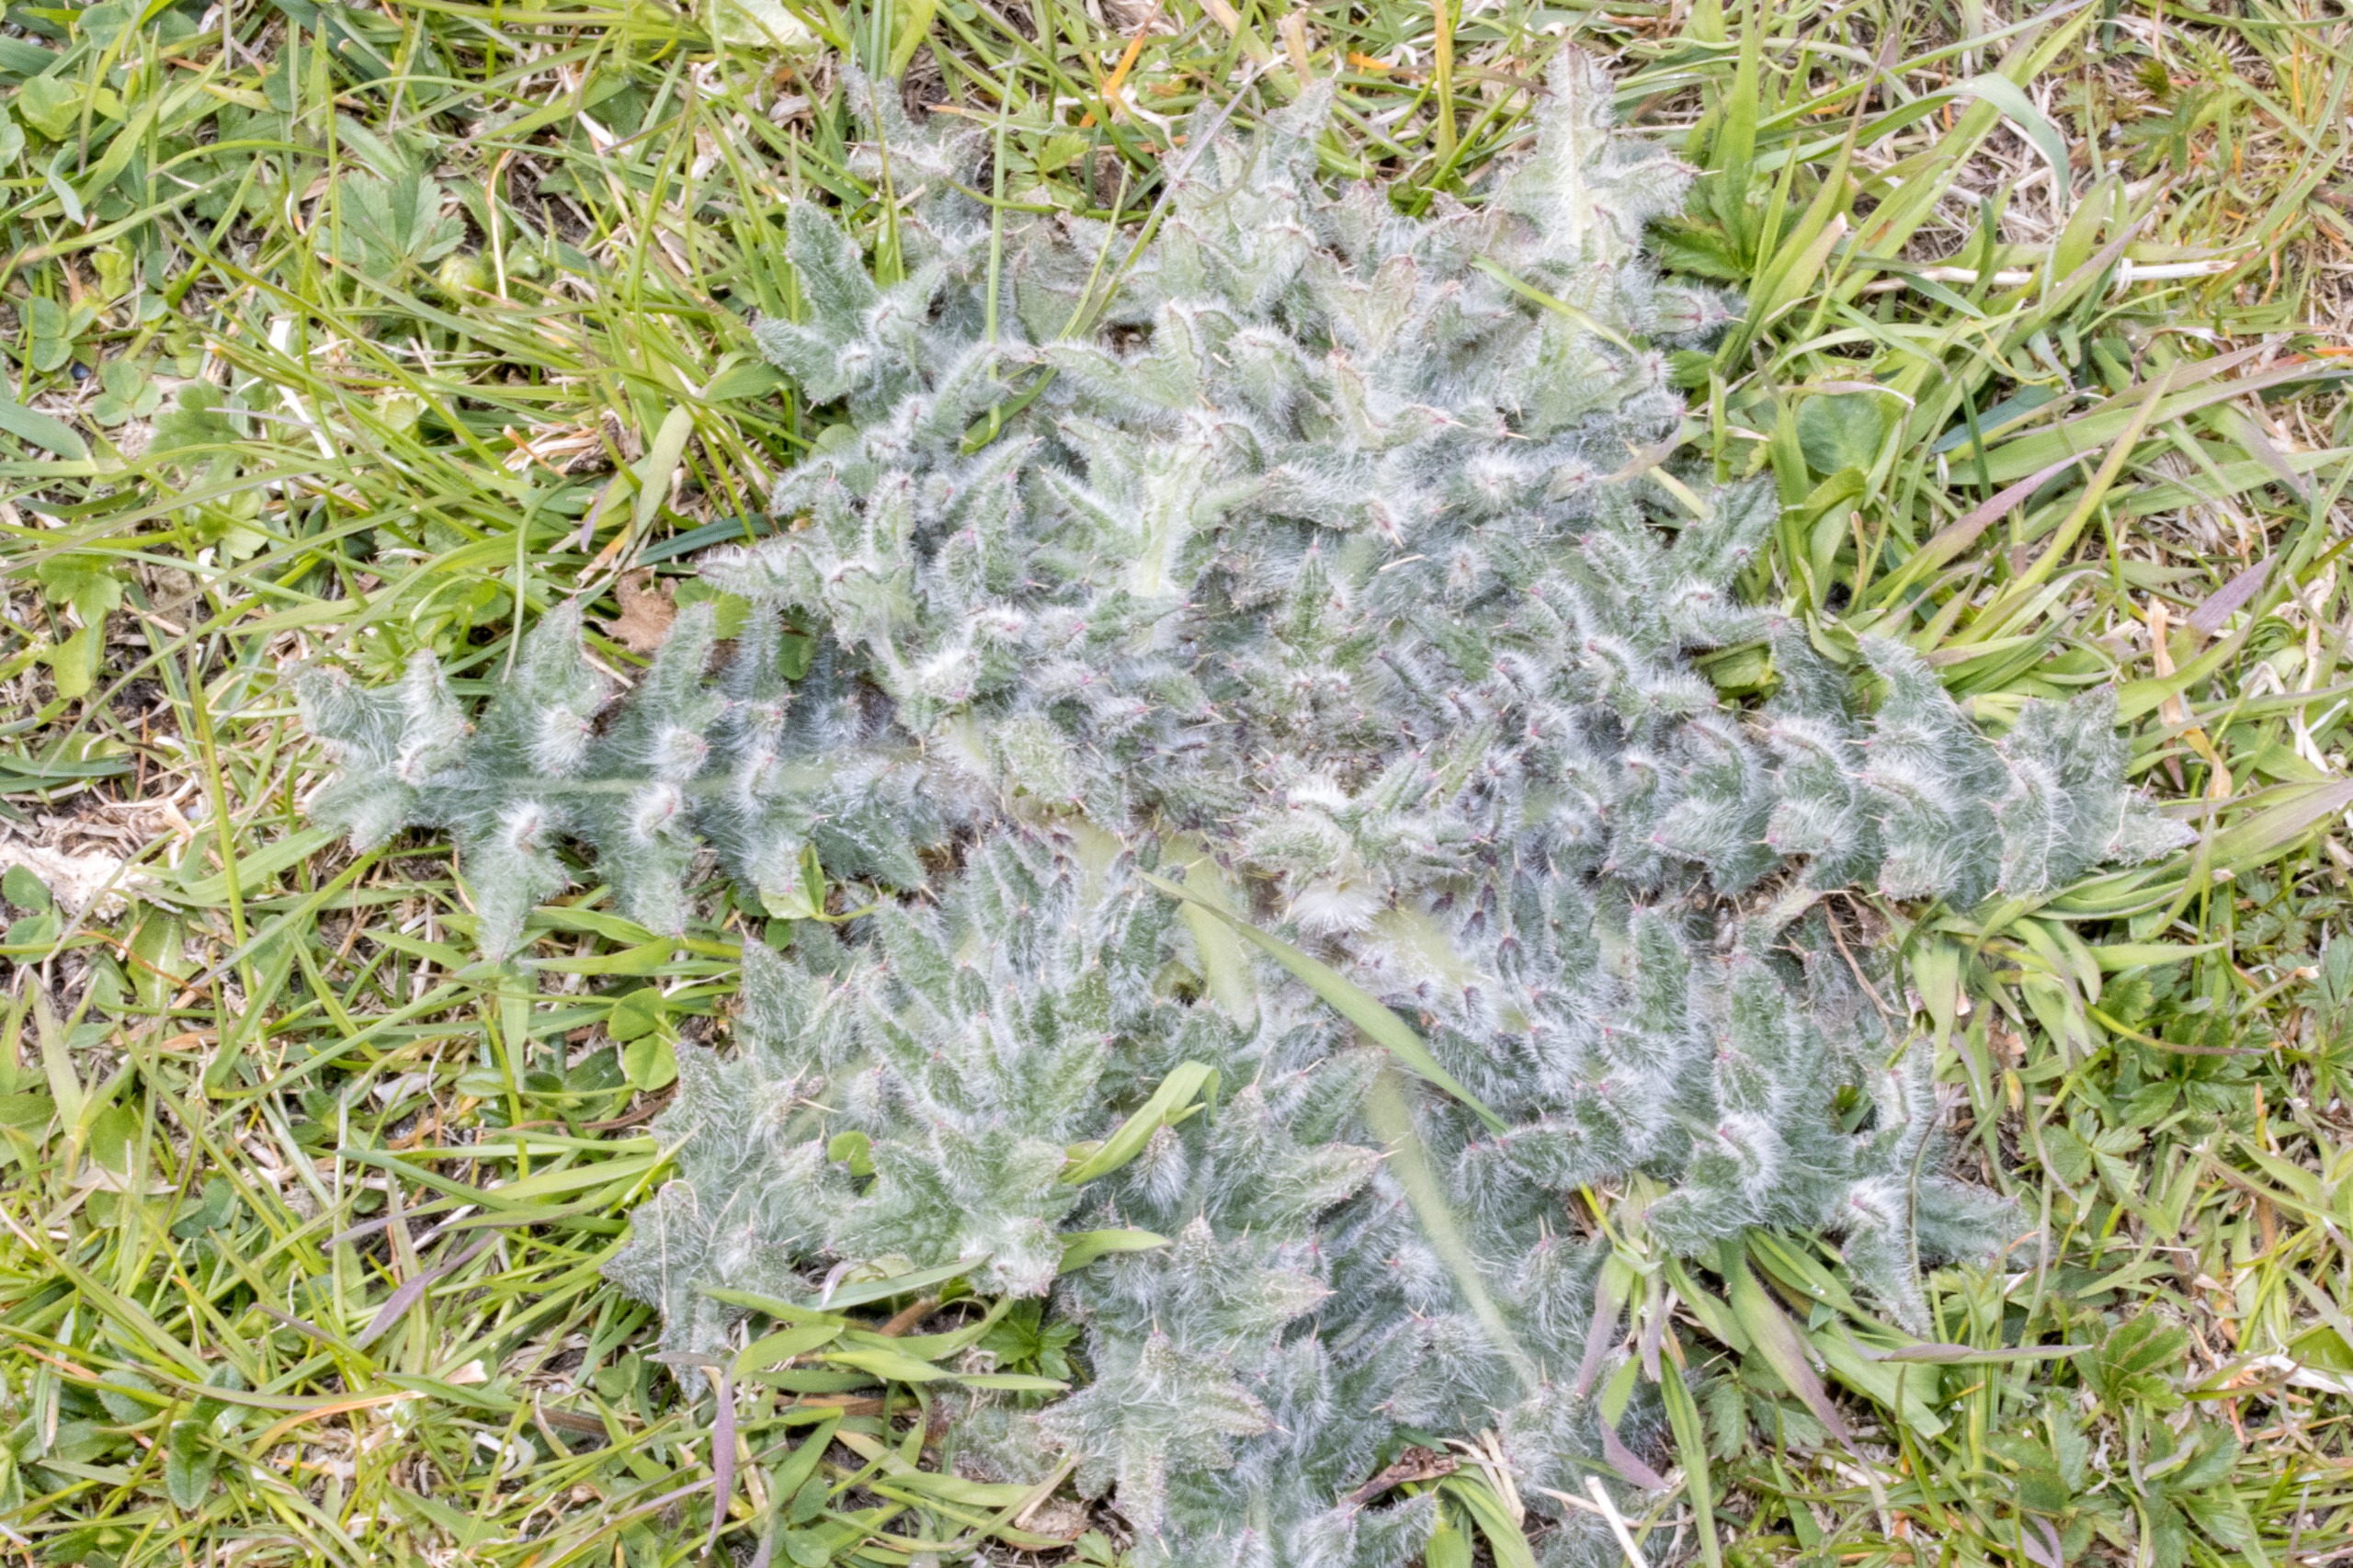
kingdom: Plantae
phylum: Tracheophyta
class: Magnoliopsida
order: Asterales
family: Asteraceae
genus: Cirsium
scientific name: Cirsium vulgare
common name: Horse-tidsel
